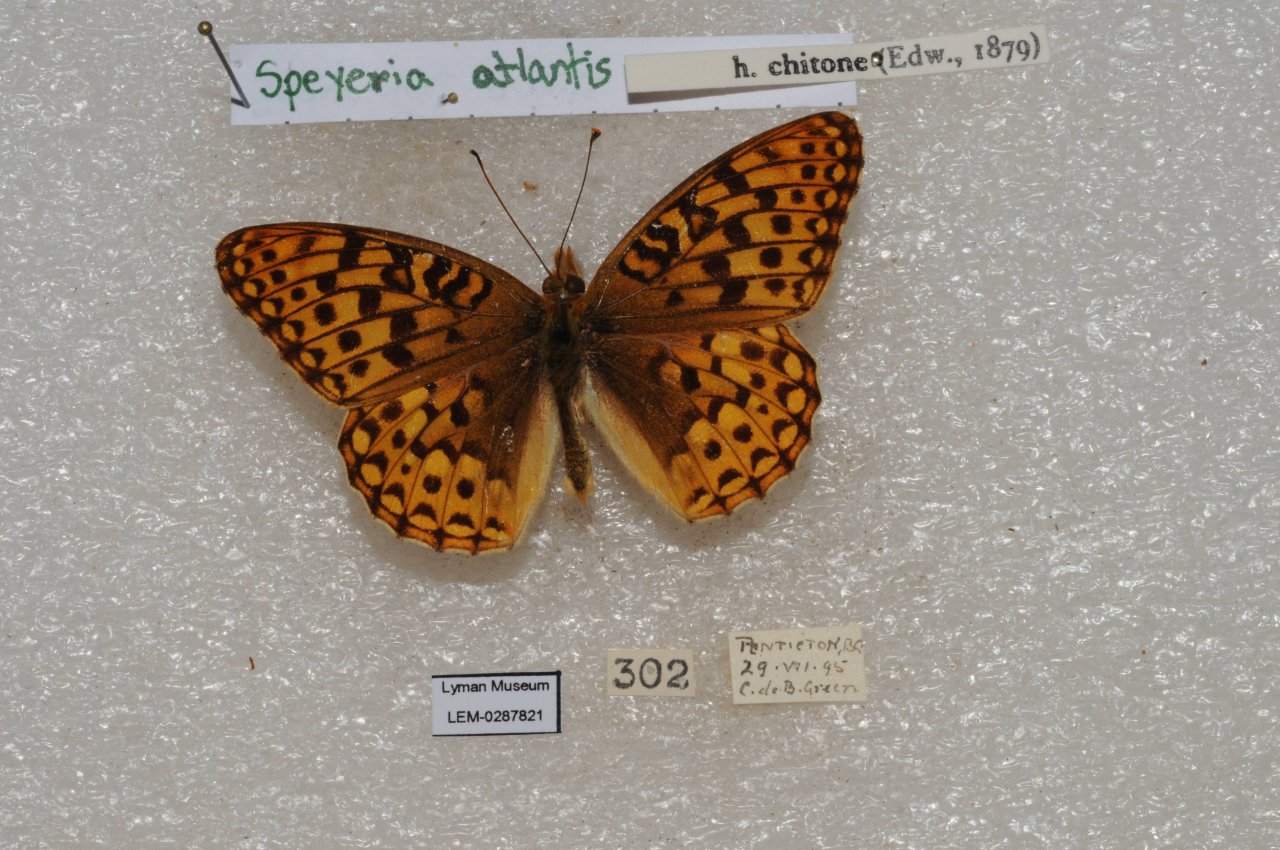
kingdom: Animalia
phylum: Arthropoda
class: Insecta
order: Lepidoptera
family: Nymphalidae
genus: Speyeria
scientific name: Speyeria atlantis
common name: Atlantis Fritillary
